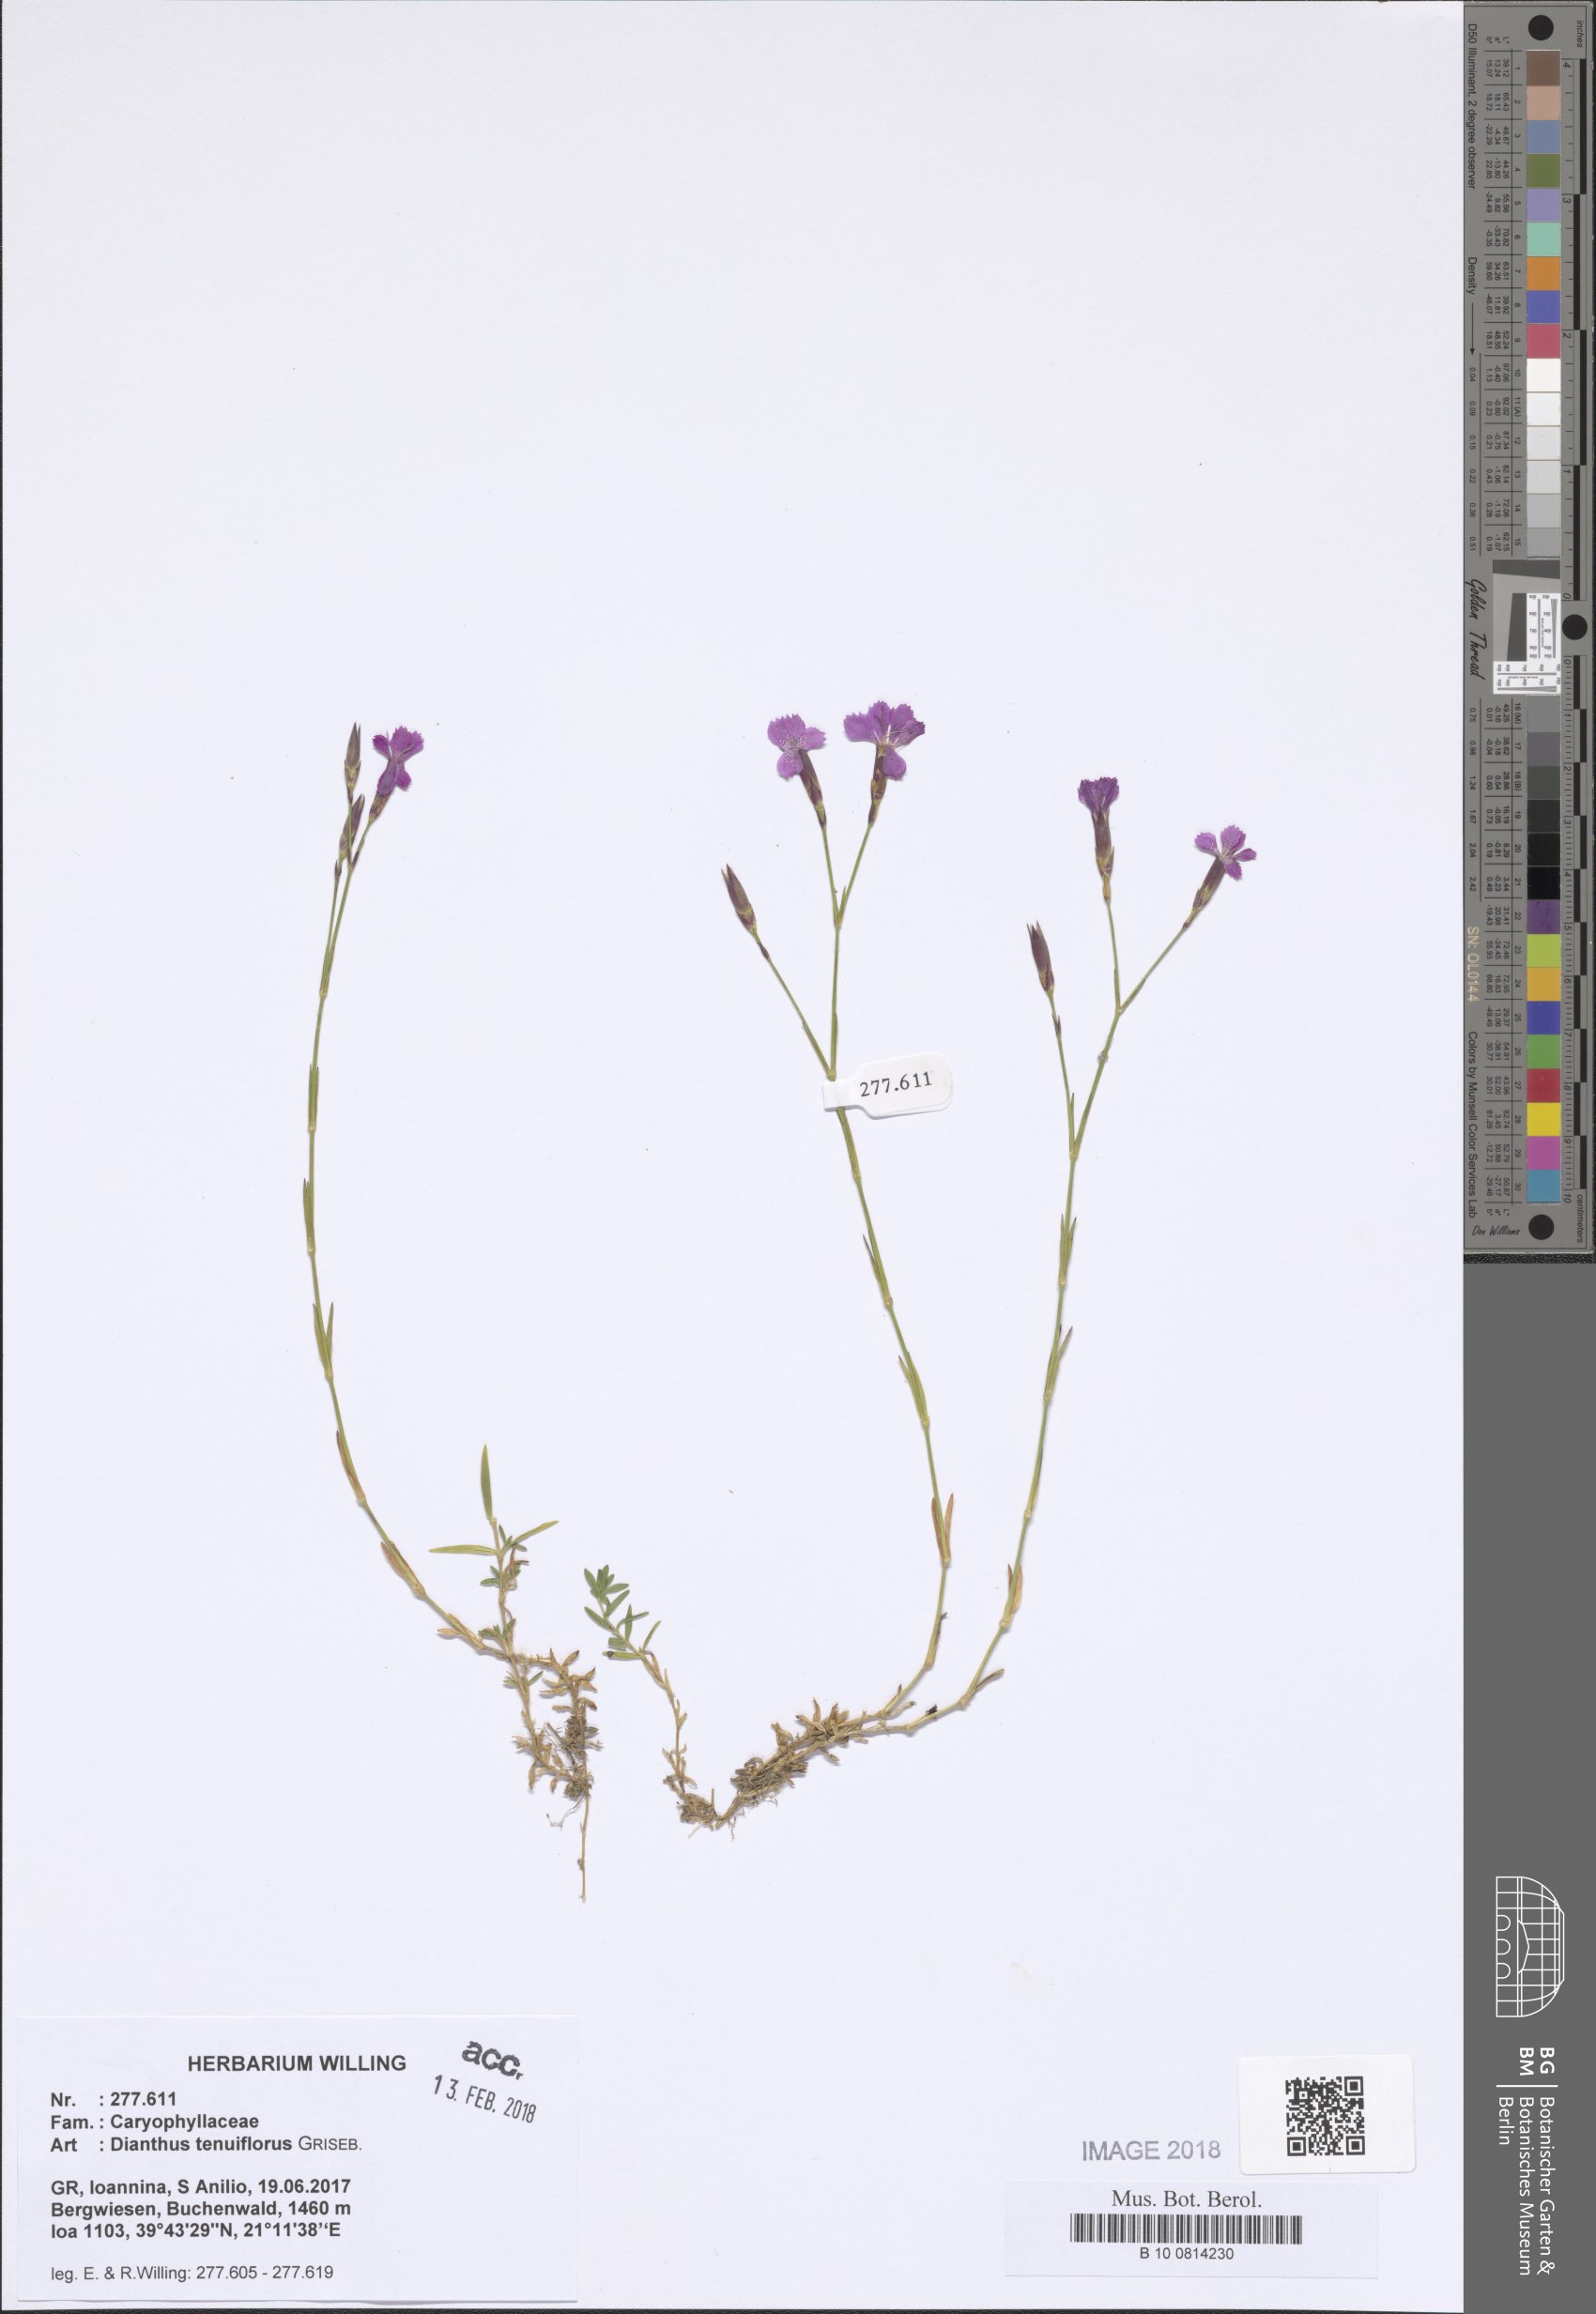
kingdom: Plantae
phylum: Tracheophyta
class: Magnoliopsida
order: Caryophyllales
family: Caryophyllaceae
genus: Dianthus
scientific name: Dianthus tenuiflorus
